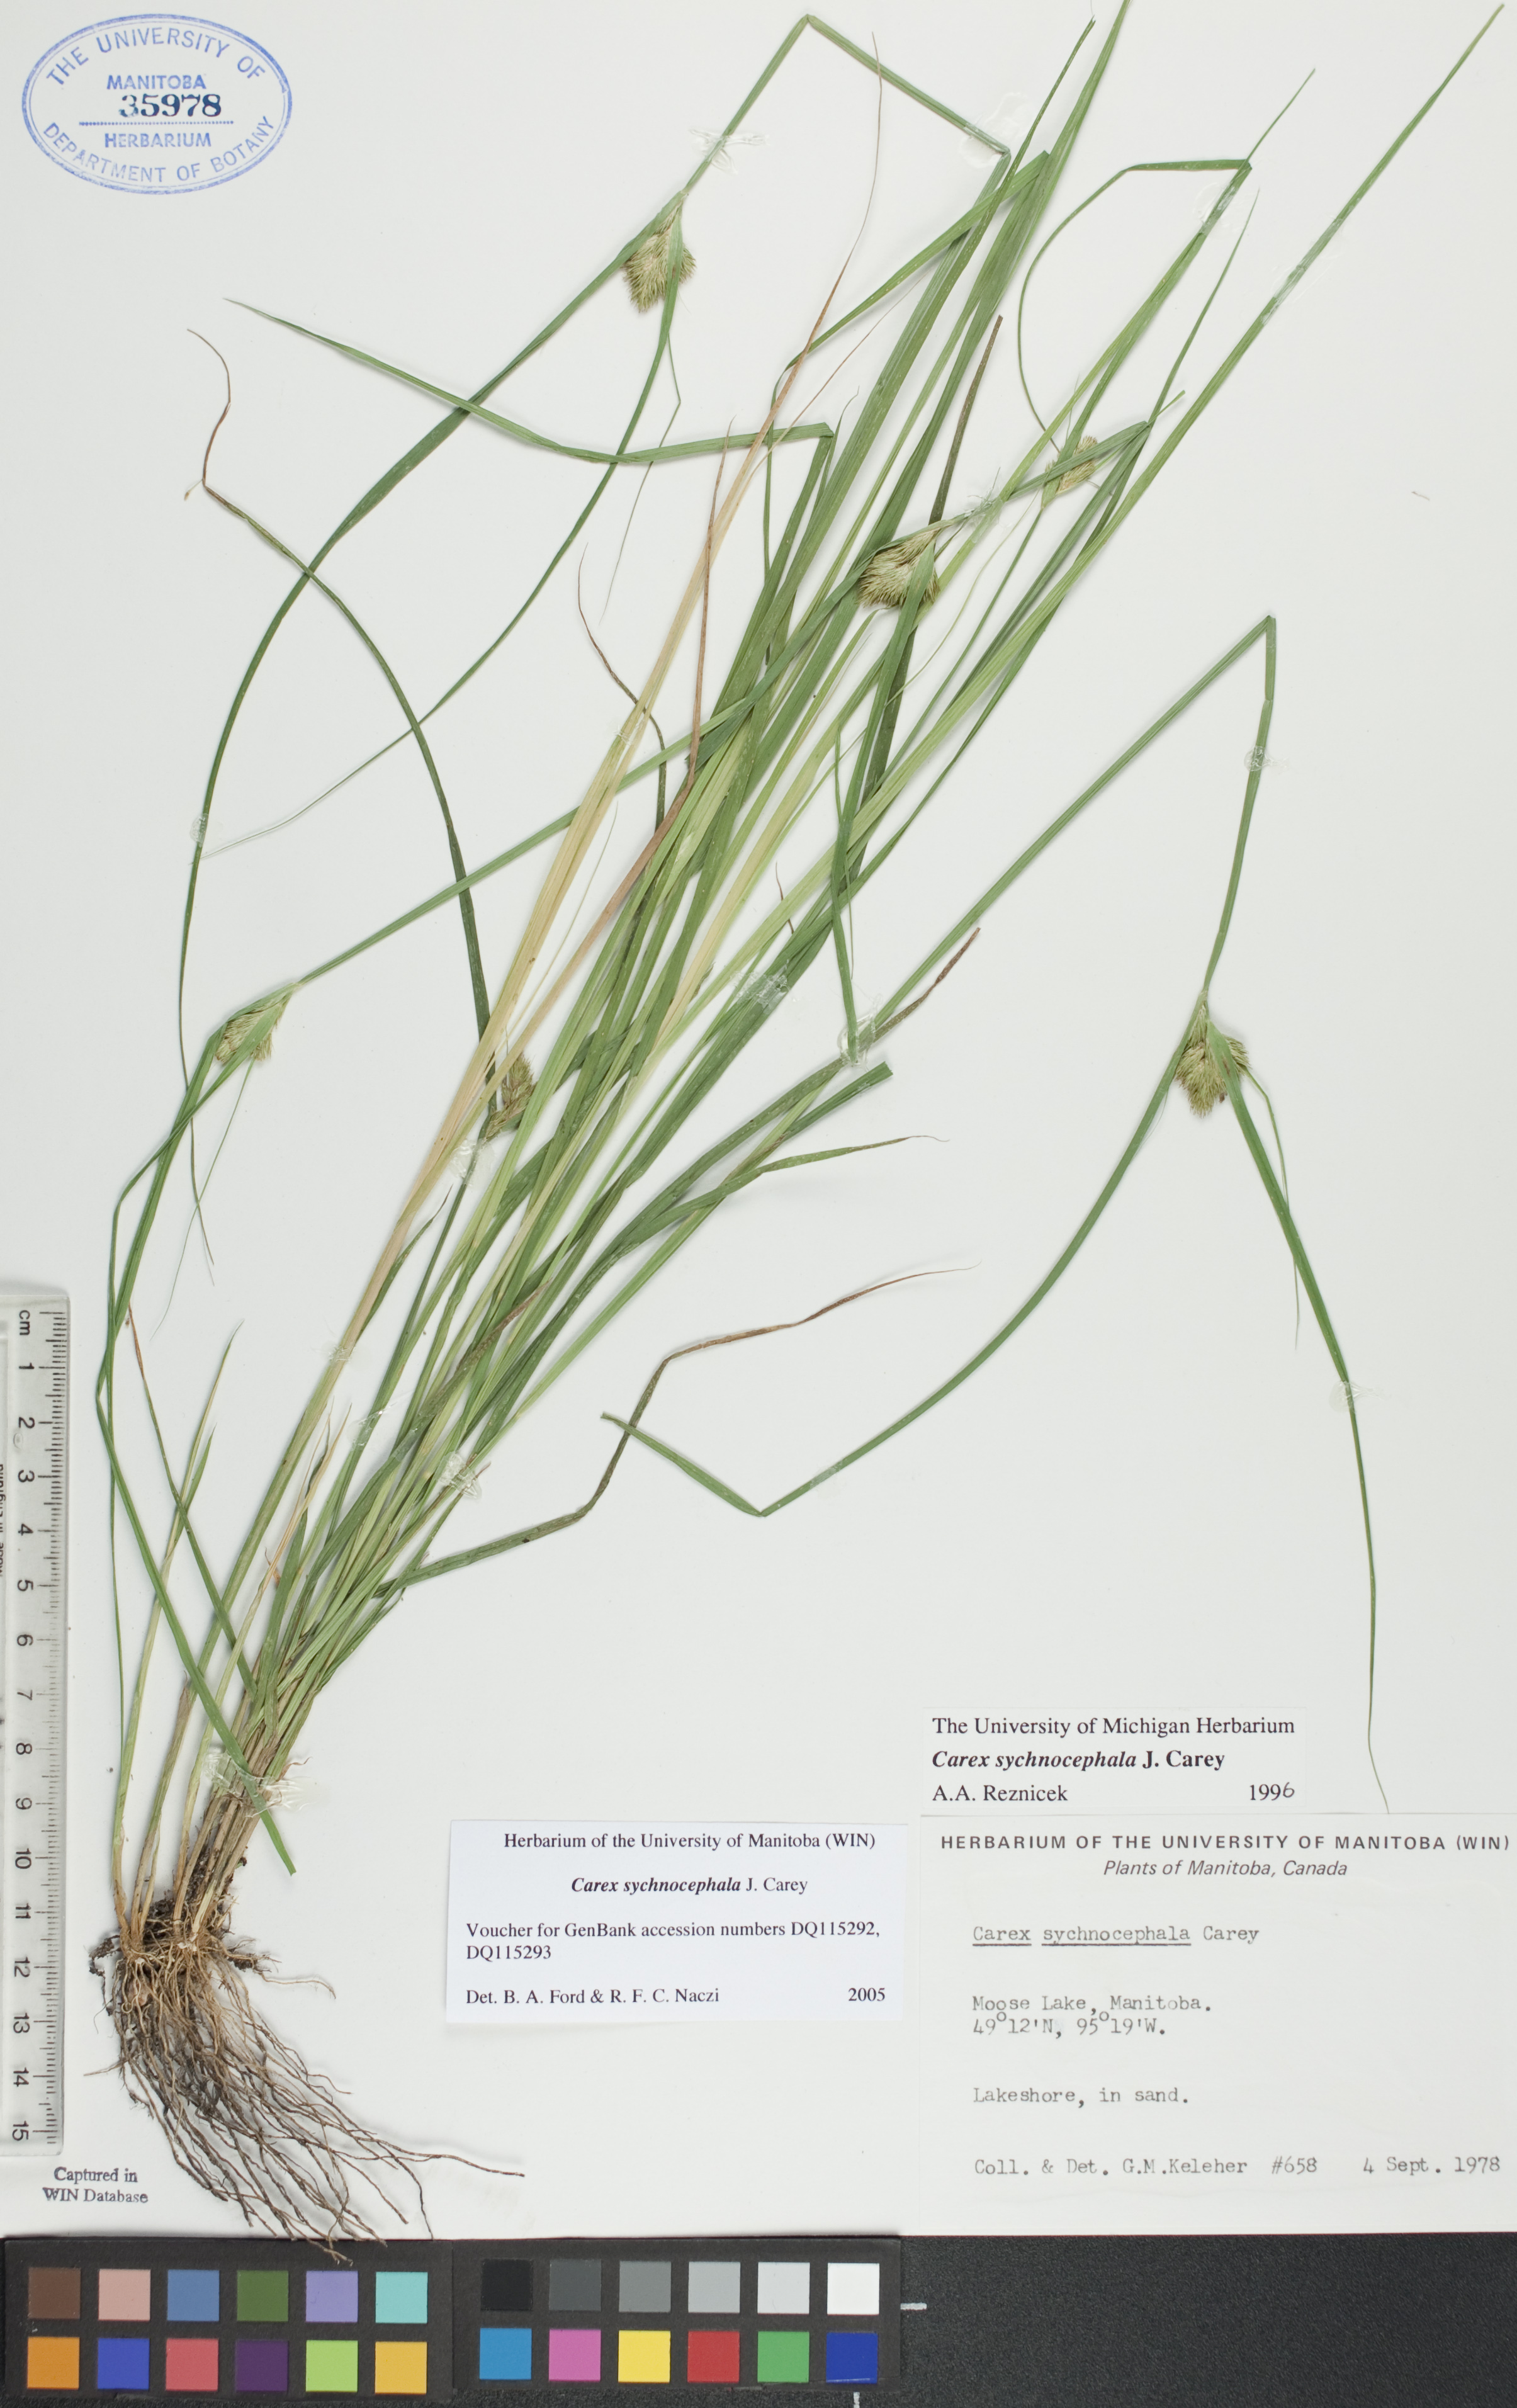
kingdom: Plantae
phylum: Tracheophyta
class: Liliopsida
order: Poales
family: Cyperaceae
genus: Carex
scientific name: Carex sychnocephala
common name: Dense long-beaked sedge
